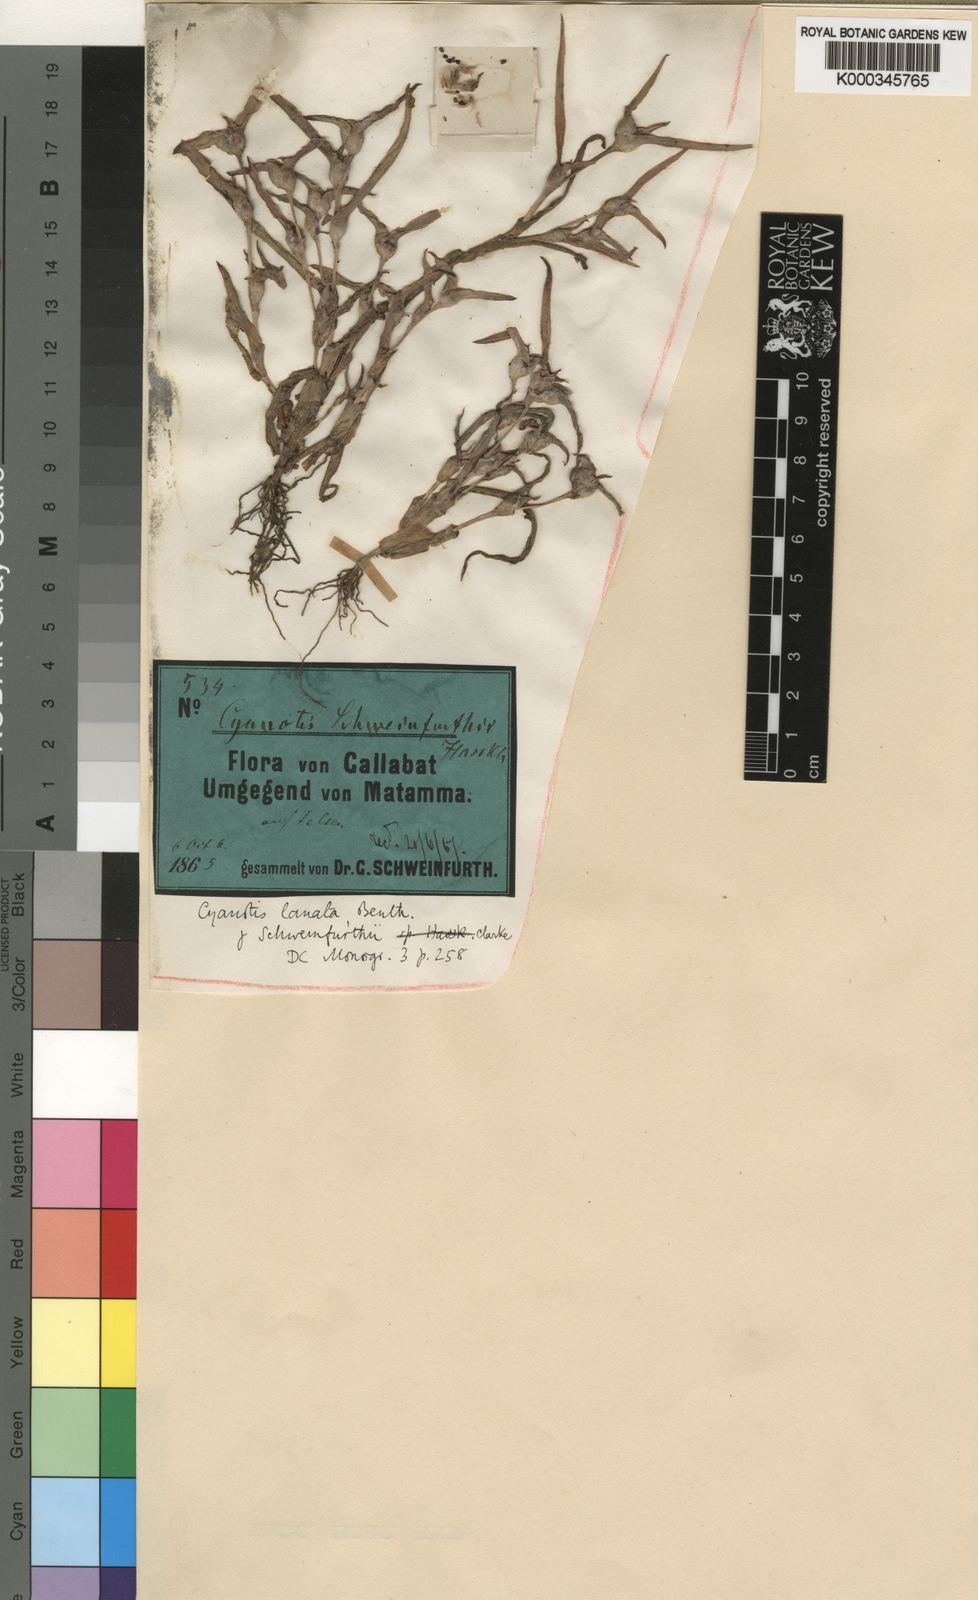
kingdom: Plantae
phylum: Tracheophyta
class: Liliopsida
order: Commelinales
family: Commelinaceae
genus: Cyanotis
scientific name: Cyanotis lanata
